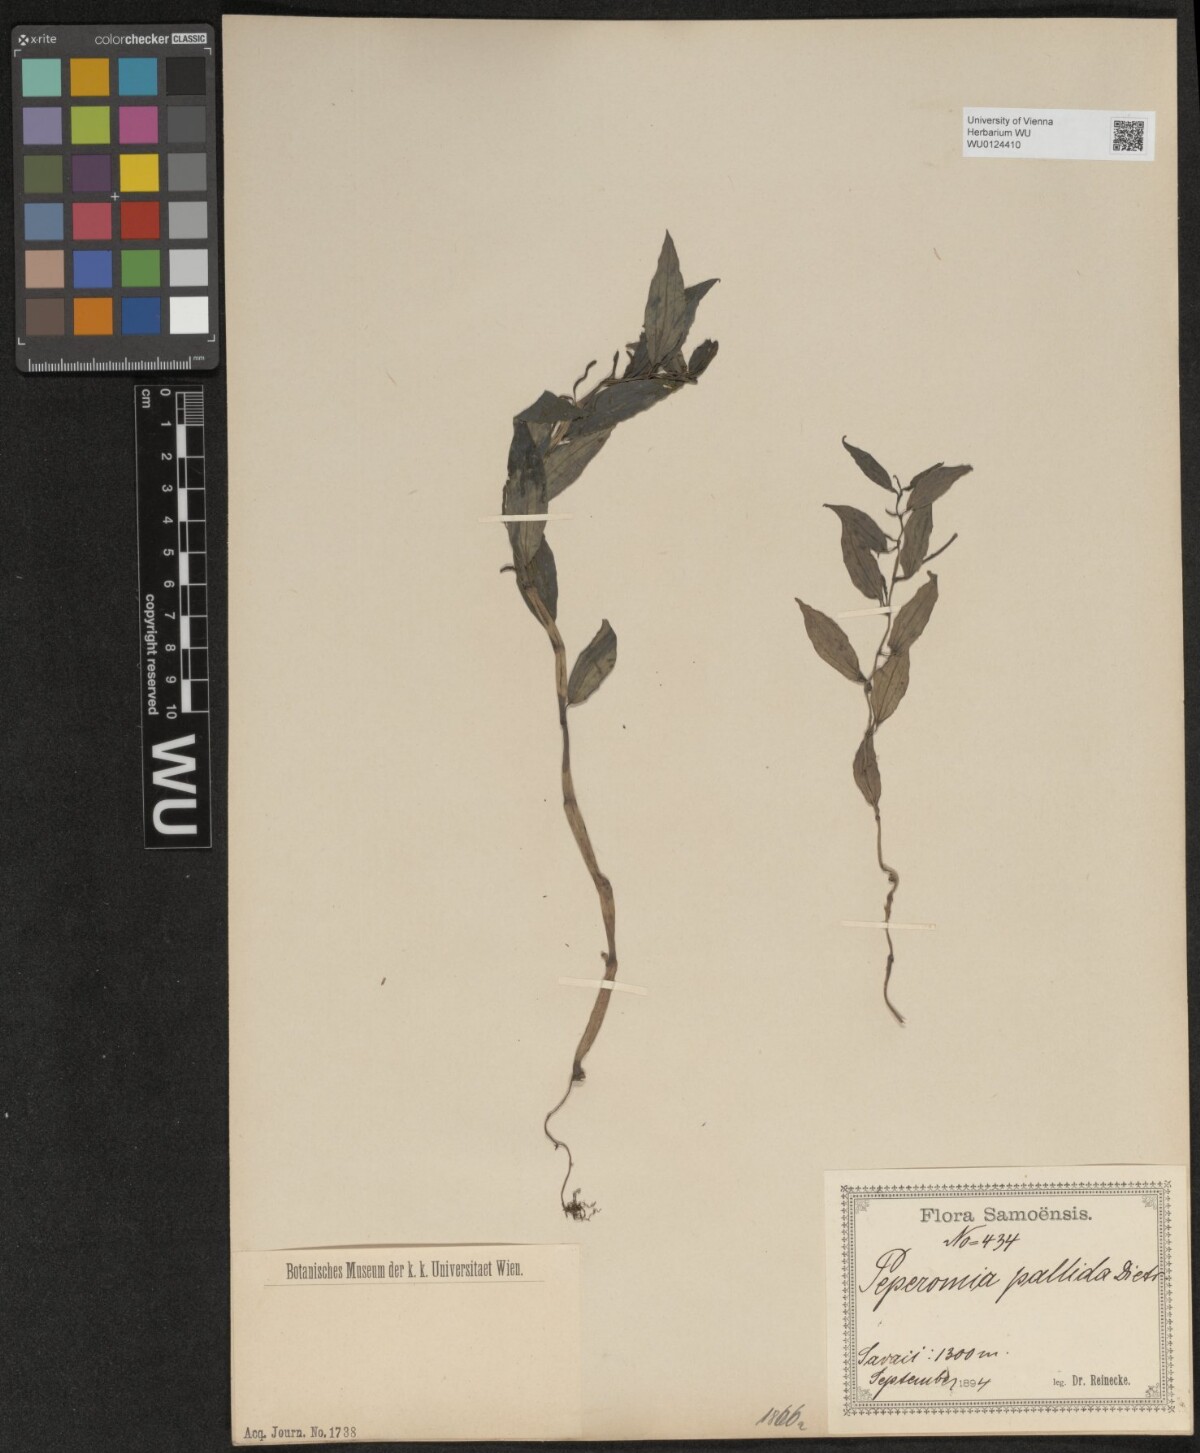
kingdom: Plantae
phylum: Tracheophyta
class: Magnoliopsida
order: Piperales
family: Piperaceae
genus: Peperomia
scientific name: Peperomia pallida
